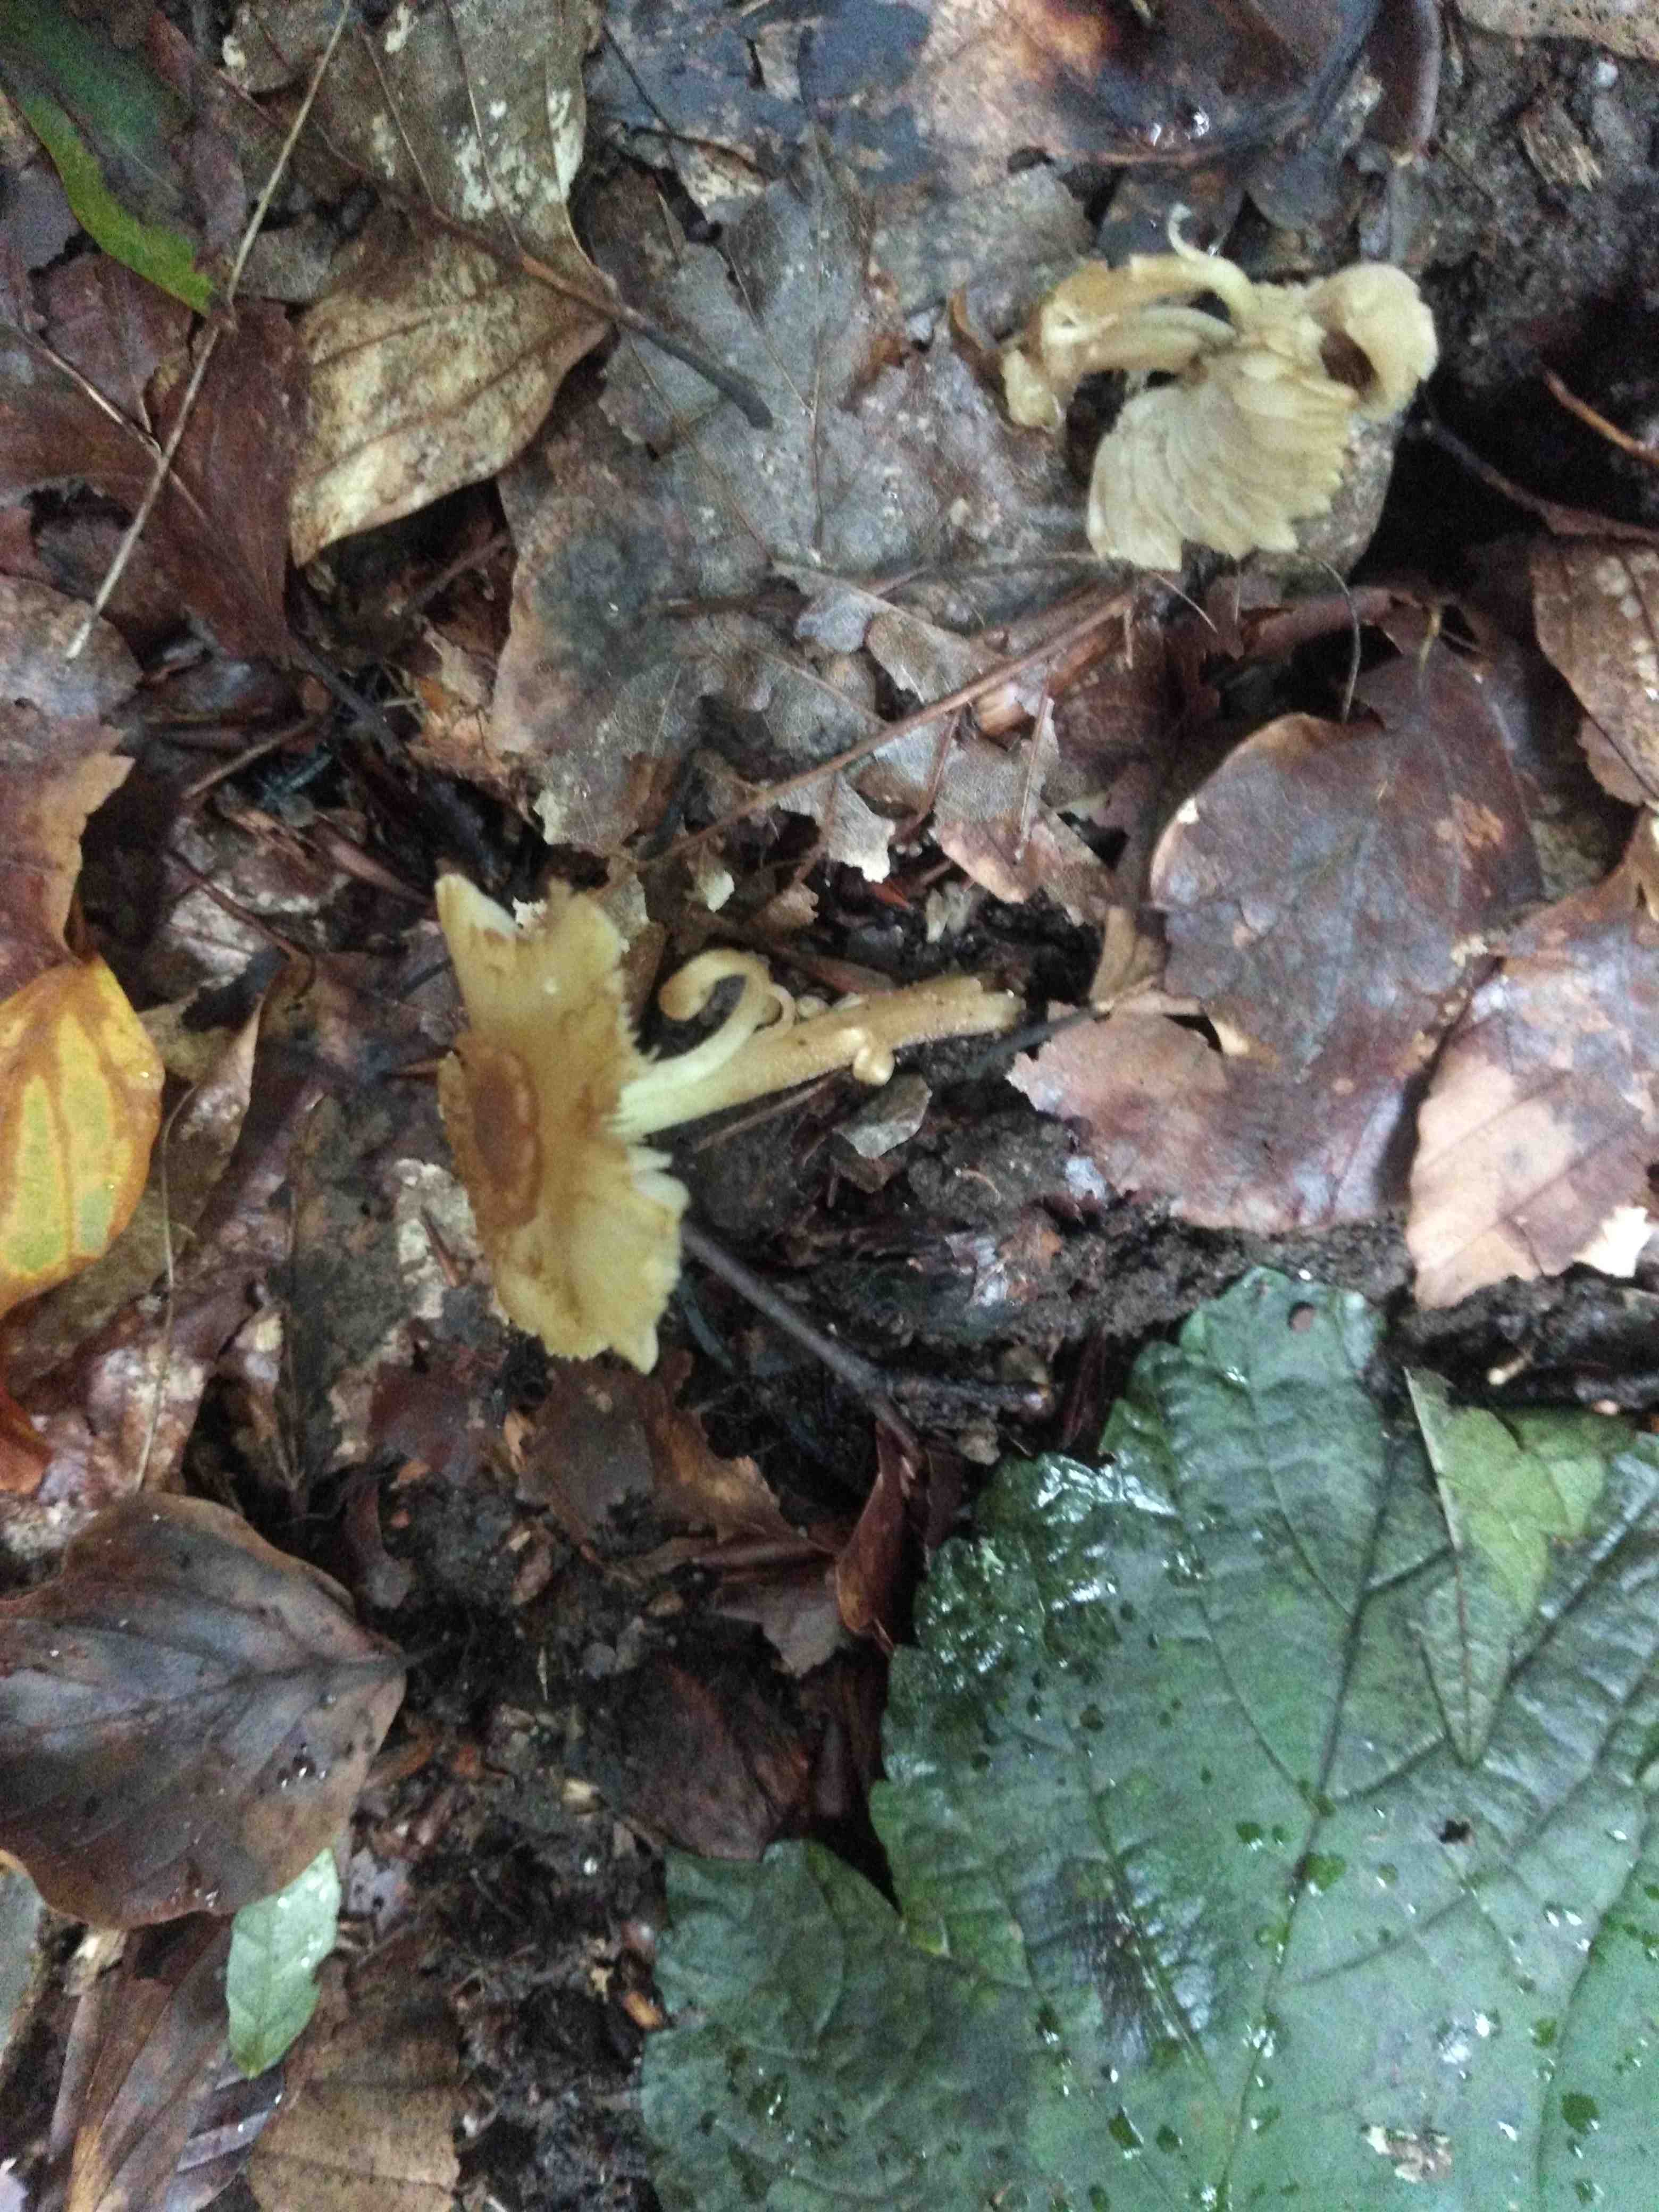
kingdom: Fungi
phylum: Basidiomycota
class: Agaricomycetes
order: Agaricales
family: Inocybaceae
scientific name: Inocybaceae
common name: trævlhatfamilien
